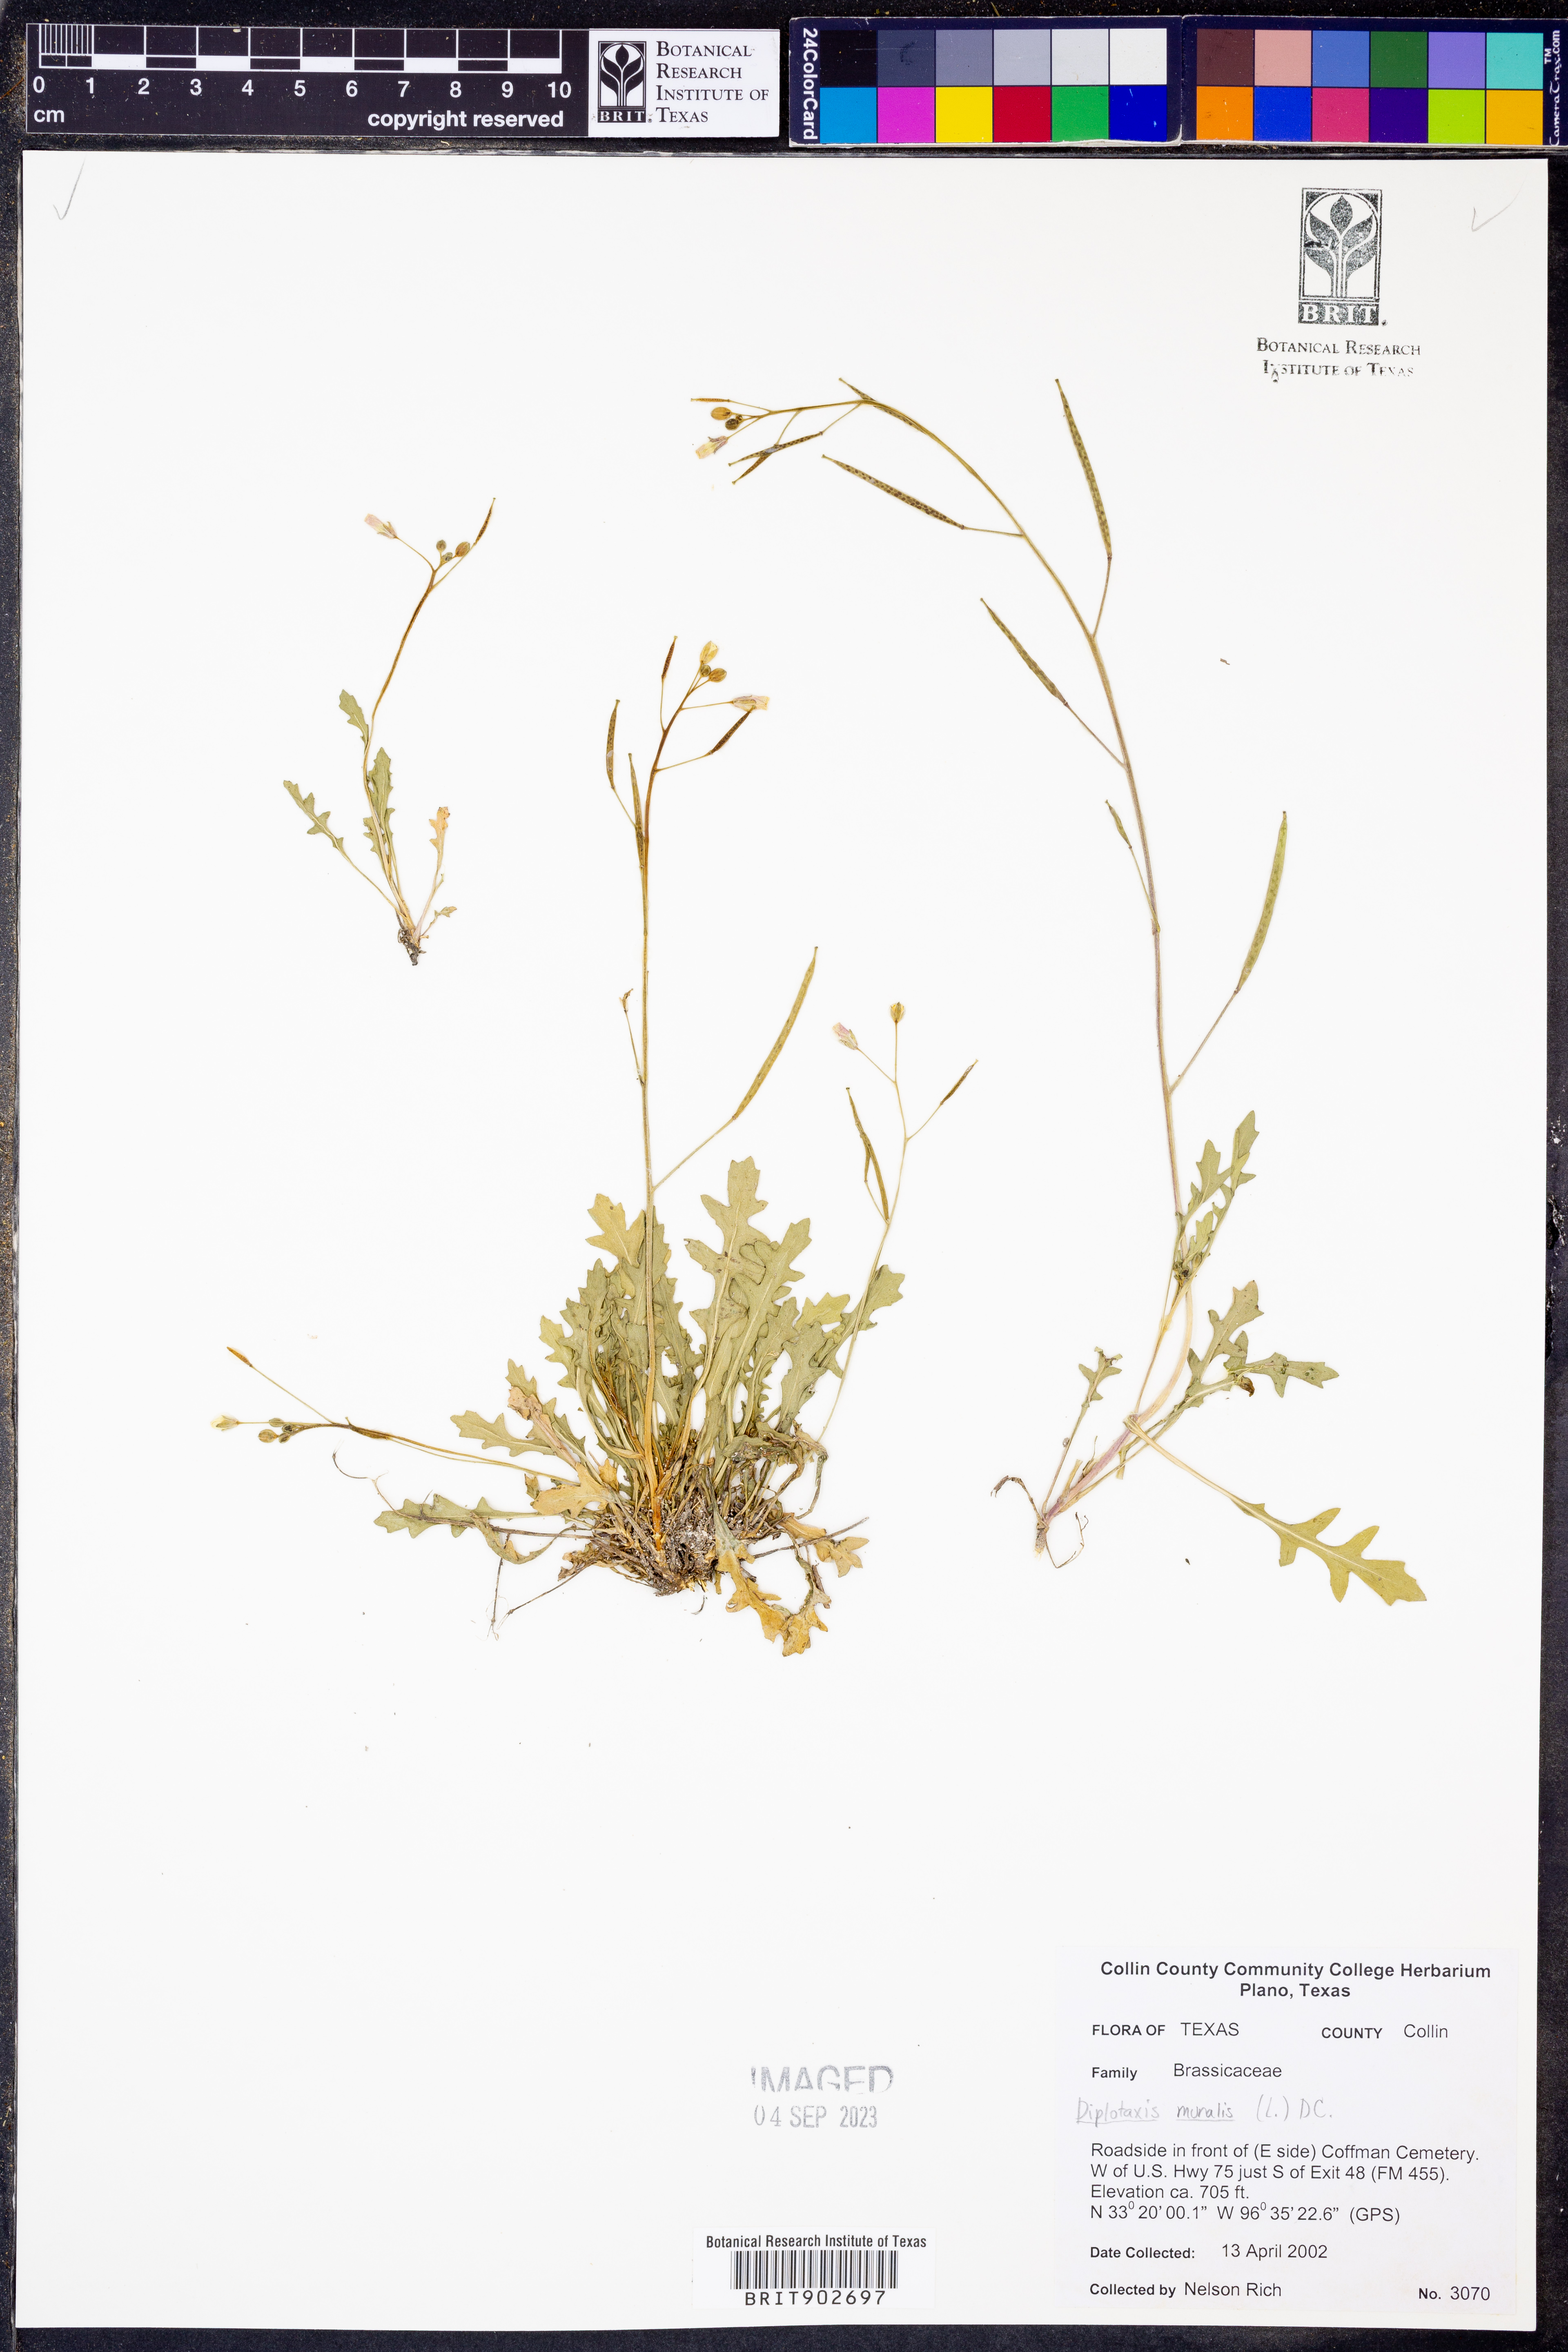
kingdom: Plantae
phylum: Tracheophyta
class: Magnoliopsida
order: Brassicales
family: Brassicaceae
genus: Diplotaxis
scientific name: Diplotaxis muralis
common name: Annual wall-rocket
